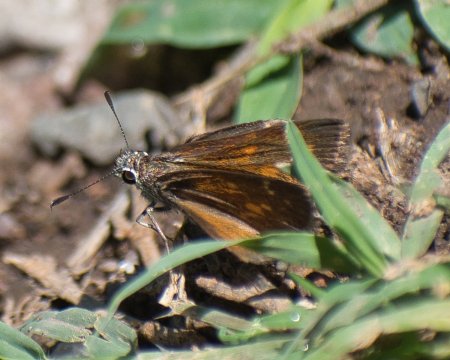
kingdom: Animalia
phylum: Arthropoda
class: Insecta
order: Lepidoptera
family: Hesperiidae
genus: Mastor
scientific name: Mastor aenus
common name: Bronze Roadside-Skipper
